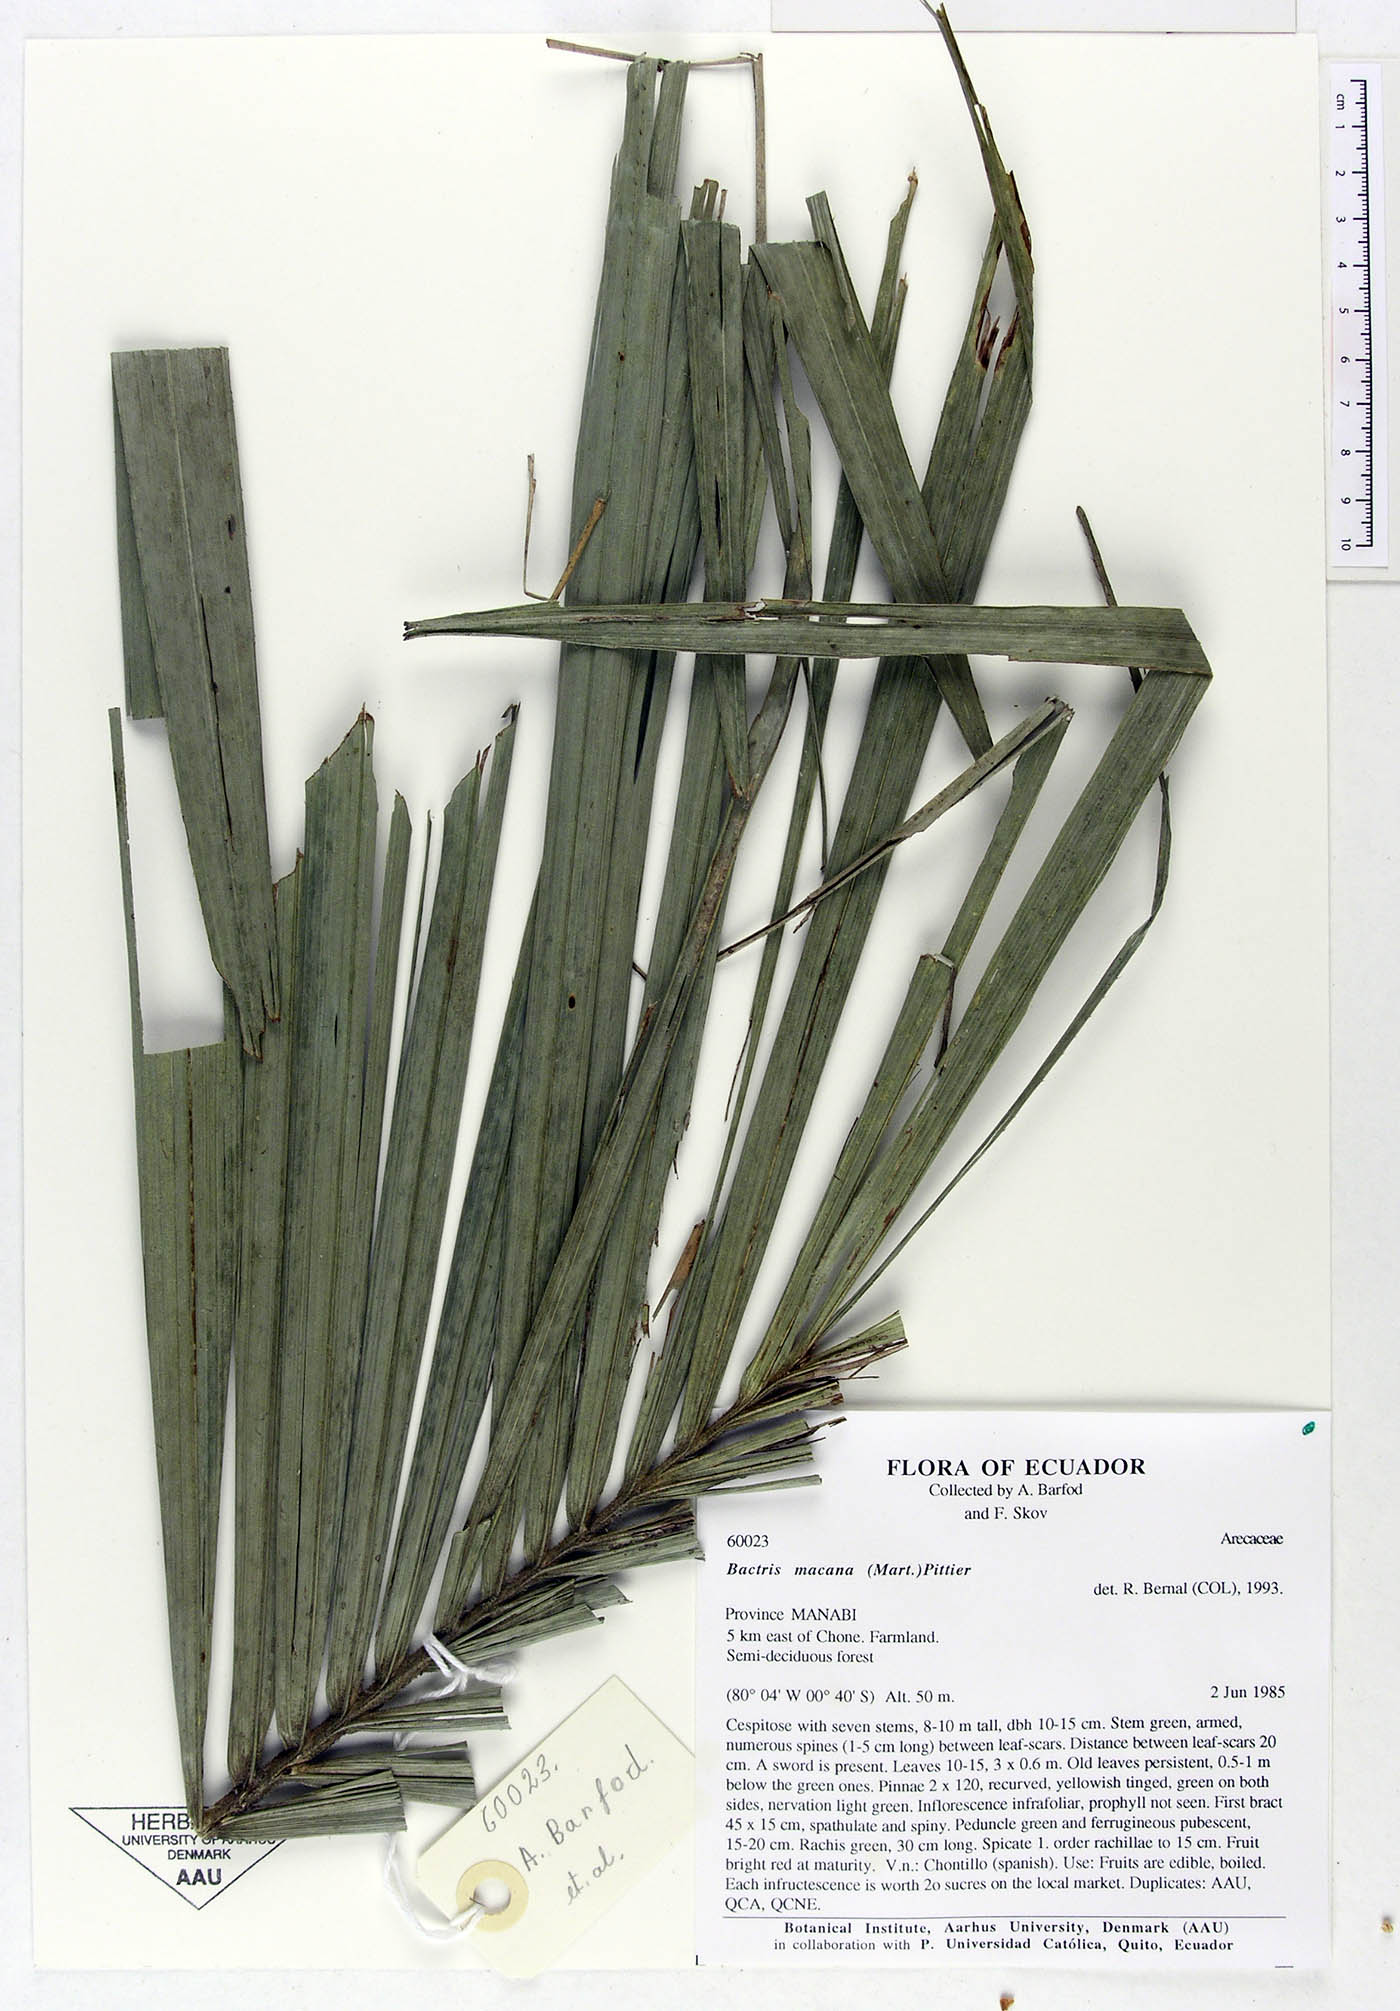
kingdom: Plantae
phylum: Tracheophyta
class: Liliopsida
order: Arecales
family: Arecaceae
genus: Bactris
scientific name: Bactris gasipaes
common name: Peach palm
